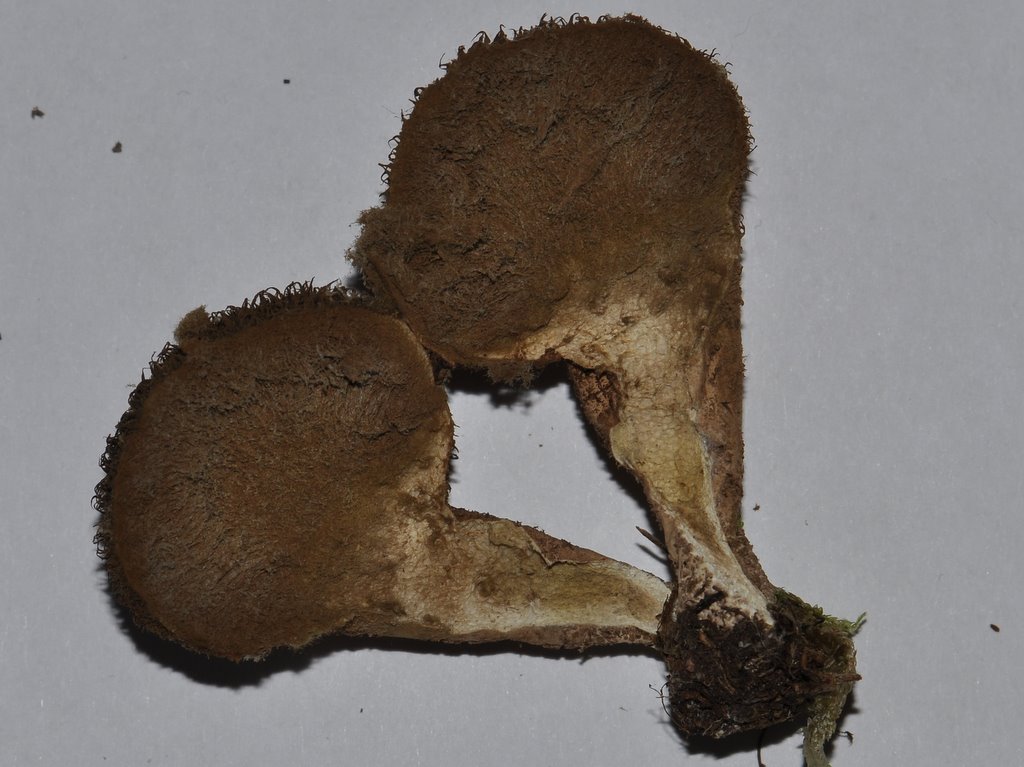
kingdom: Fungi
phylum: Basidiomycota
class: Agaricomycetes
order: Agaricales
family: Lycoperdaceae
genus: Lycoperdon
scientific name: Lycoperdon nigrescens
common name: sortagtig støvbold
